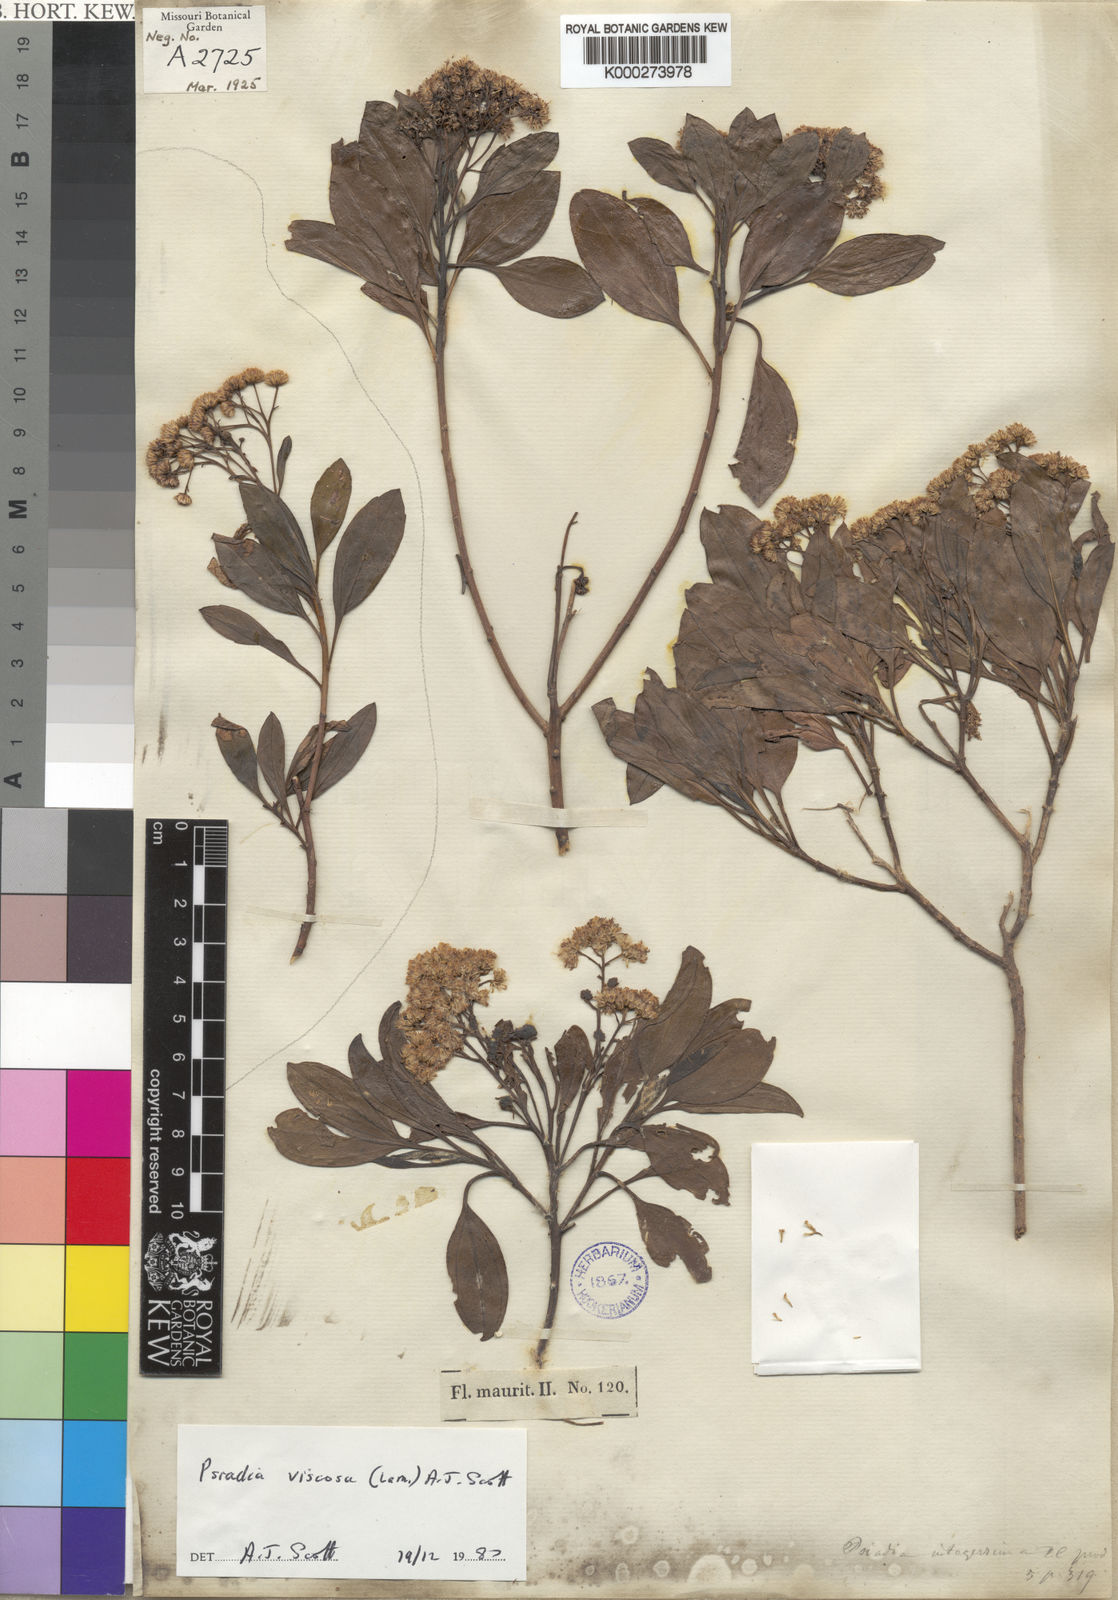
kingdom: Plantae
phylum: Tracheophyta
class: Magnoliopsida
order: Asterales
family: Asteraceae
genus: Psiadia
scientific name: Psiadia viscosa
